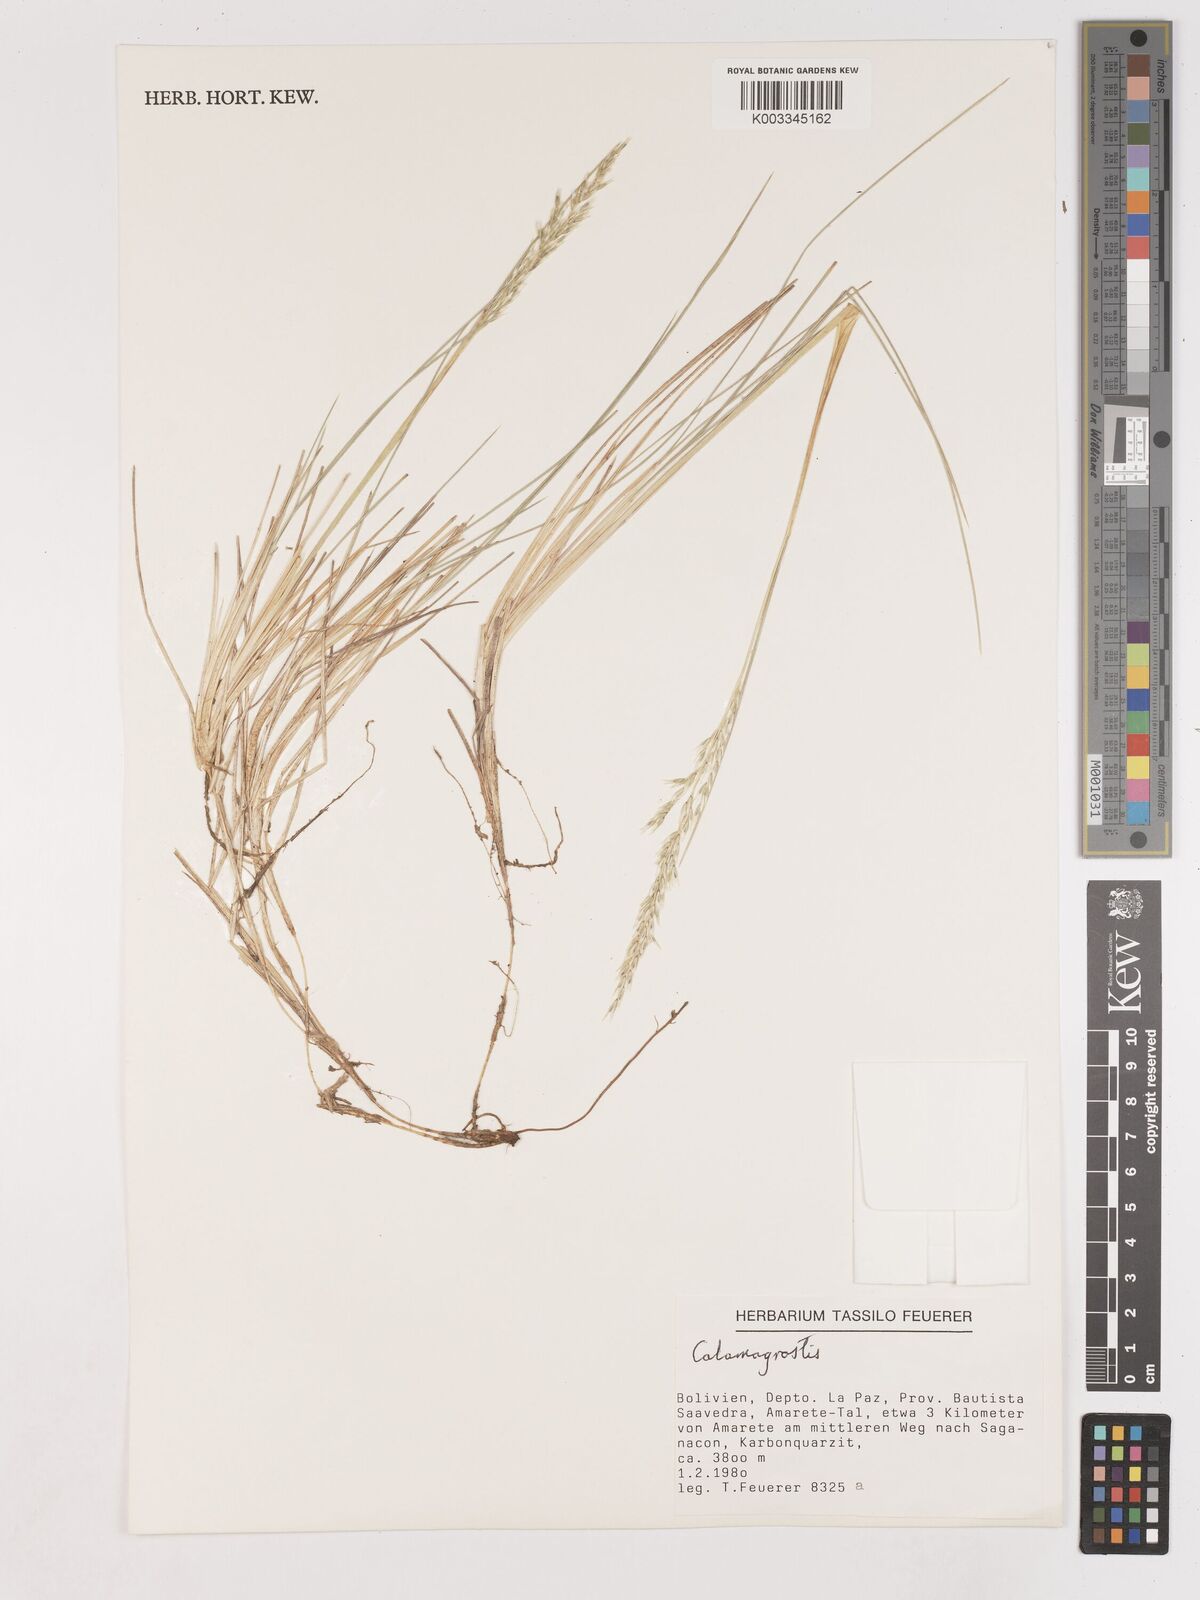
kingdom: Plantae
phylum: Tracheophyta
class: Liliopsida
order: Poales
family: Poaceae
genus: Calamagrostis
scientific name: Calamagrostis
